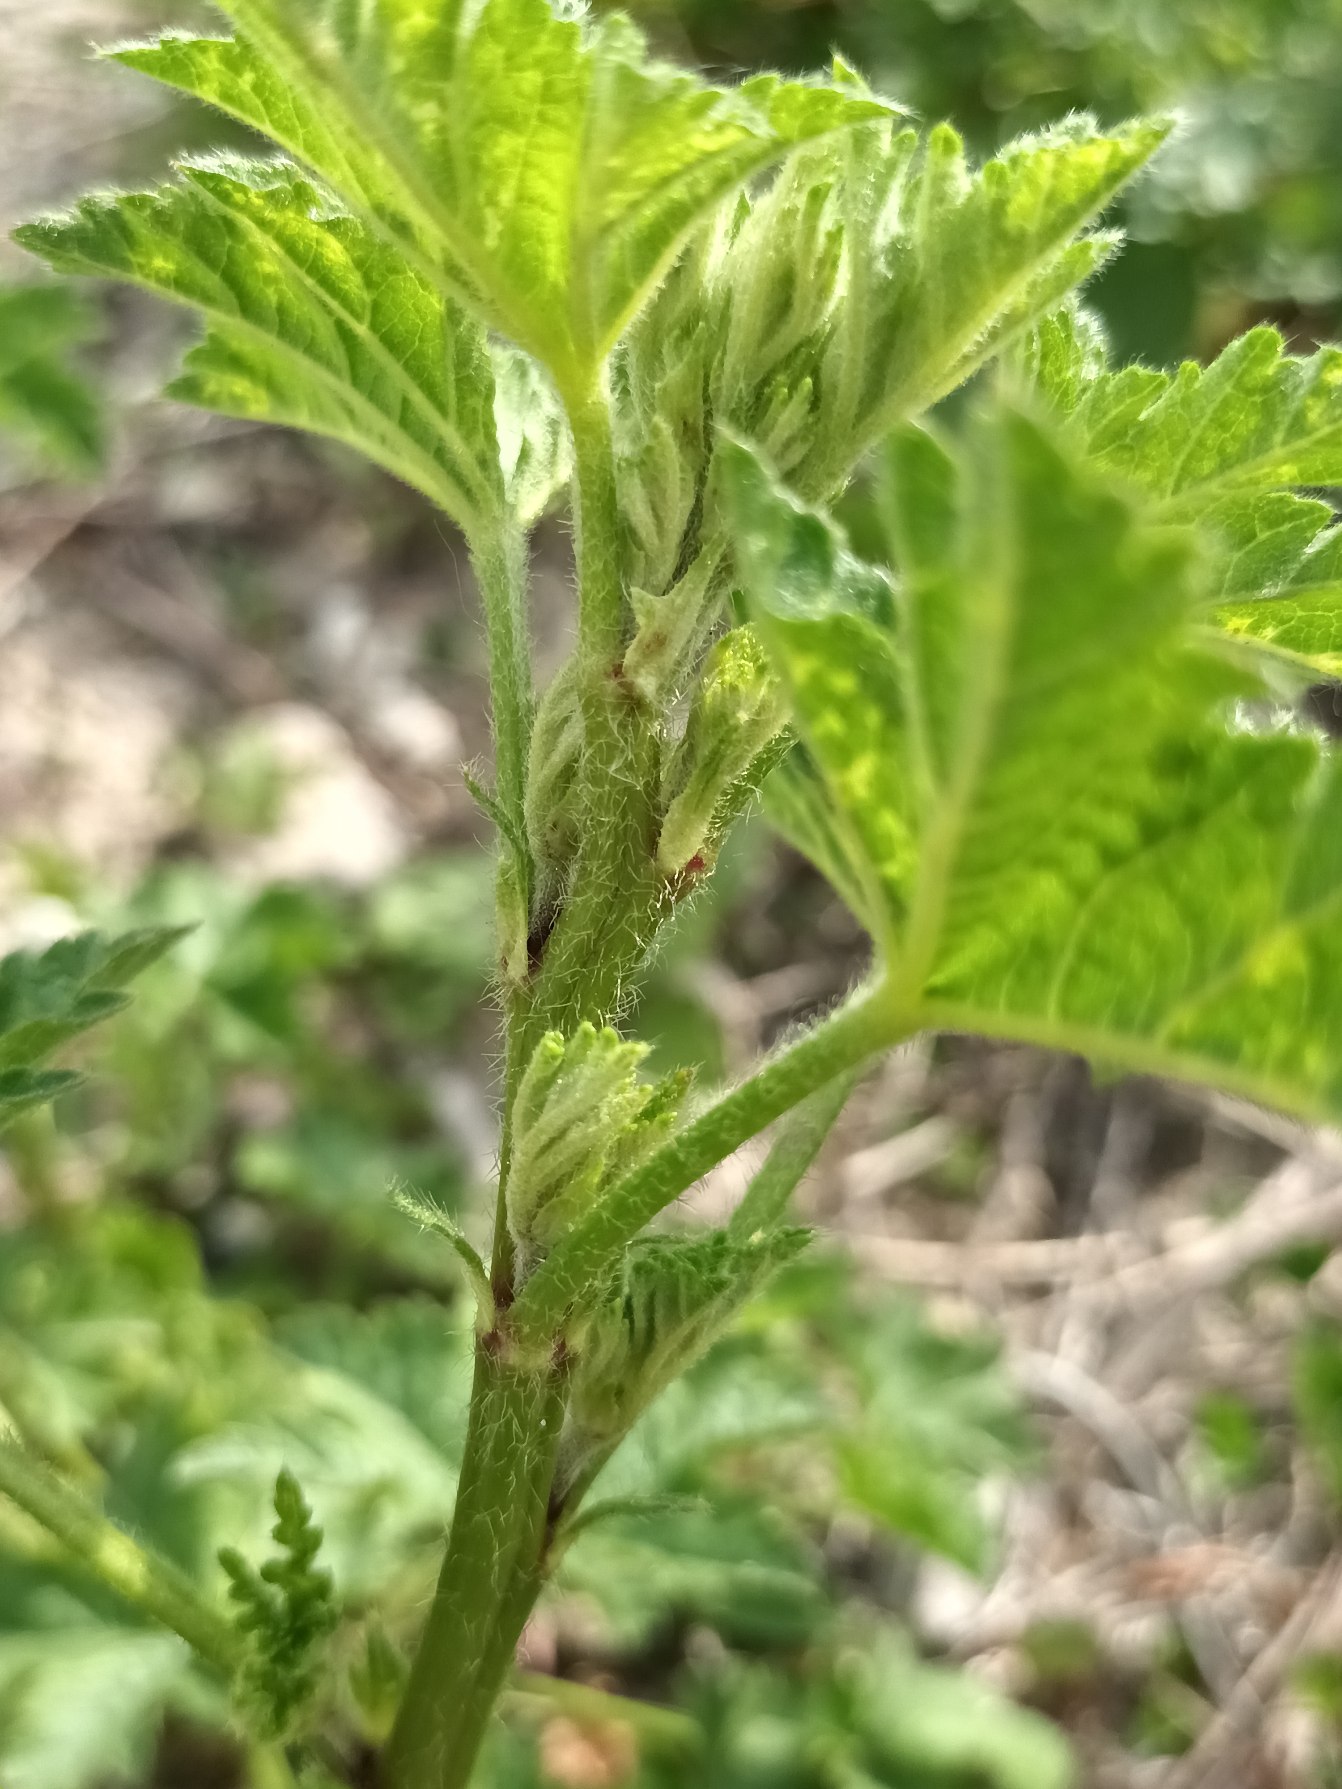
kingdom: Plantae
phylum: Tracheophyta
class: Magnoliopsida
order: Malvales
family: Malvaceae
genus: Malva
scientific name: Malva moschata
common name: Moskus-katost
